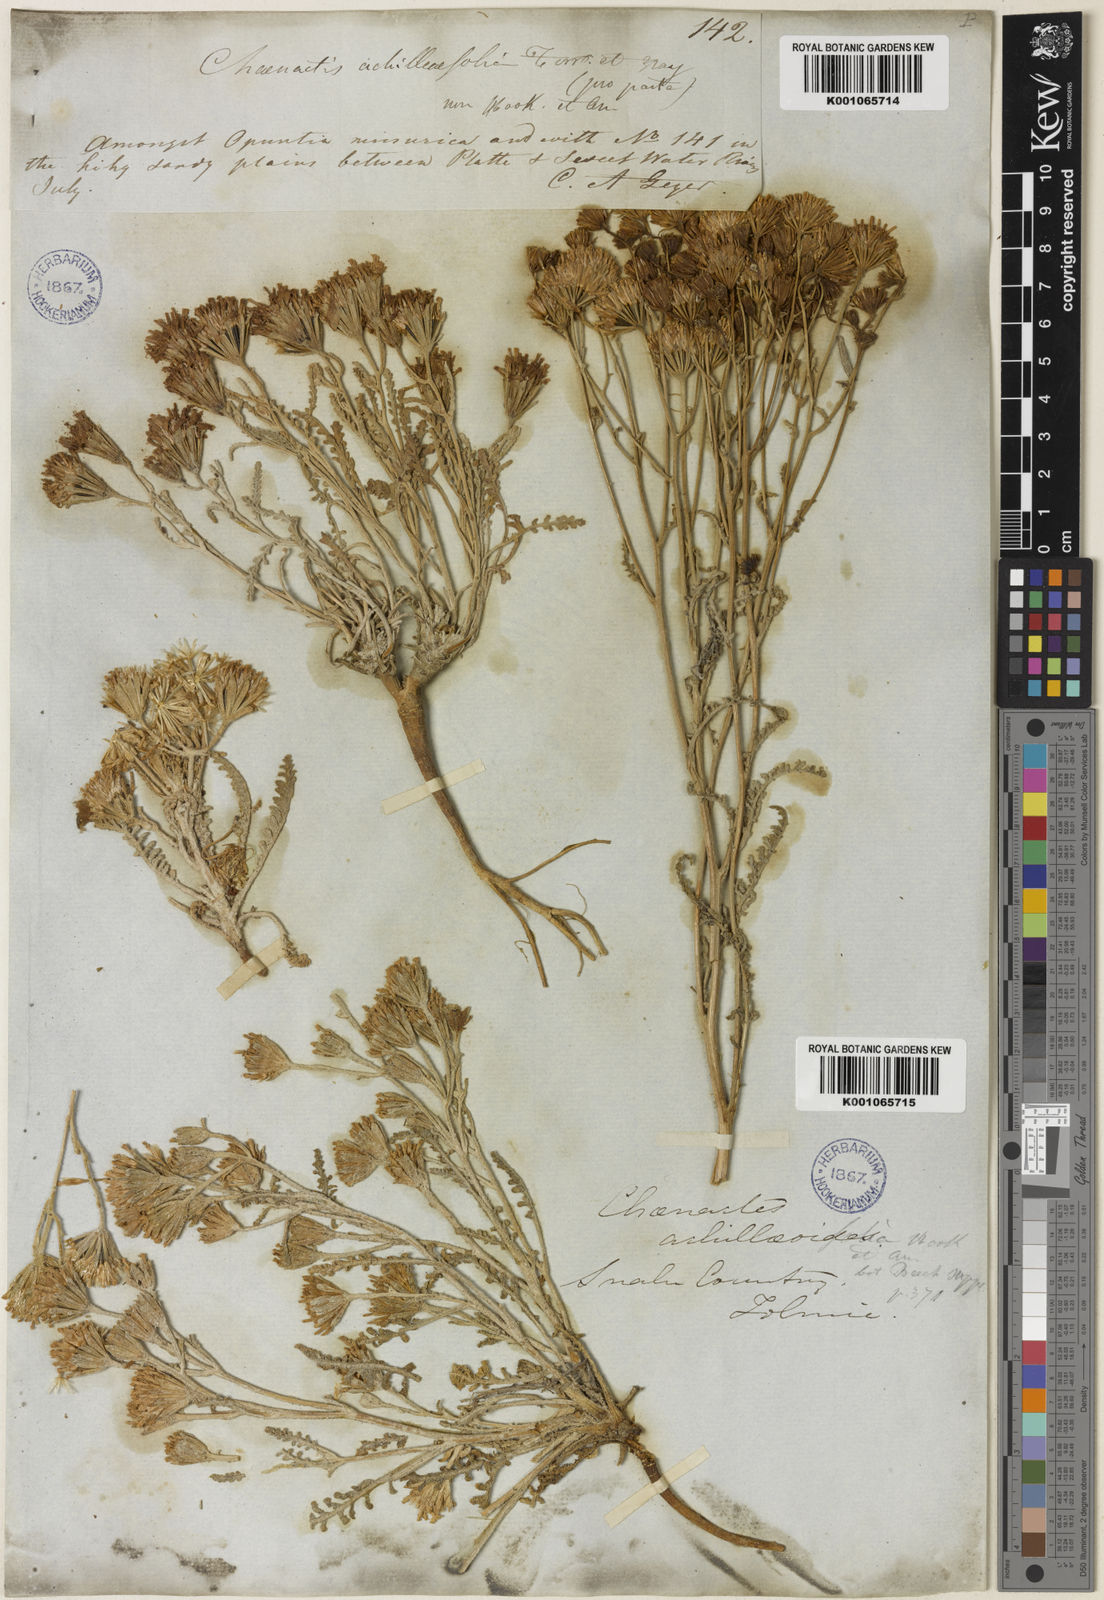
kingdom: Plantae
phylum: Tracheophyta
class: Magnoliopsida
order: Asterales
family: Asteraceae
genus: Chaenactis
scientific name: Chaenactis douglasii
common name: Hoary pincushion
